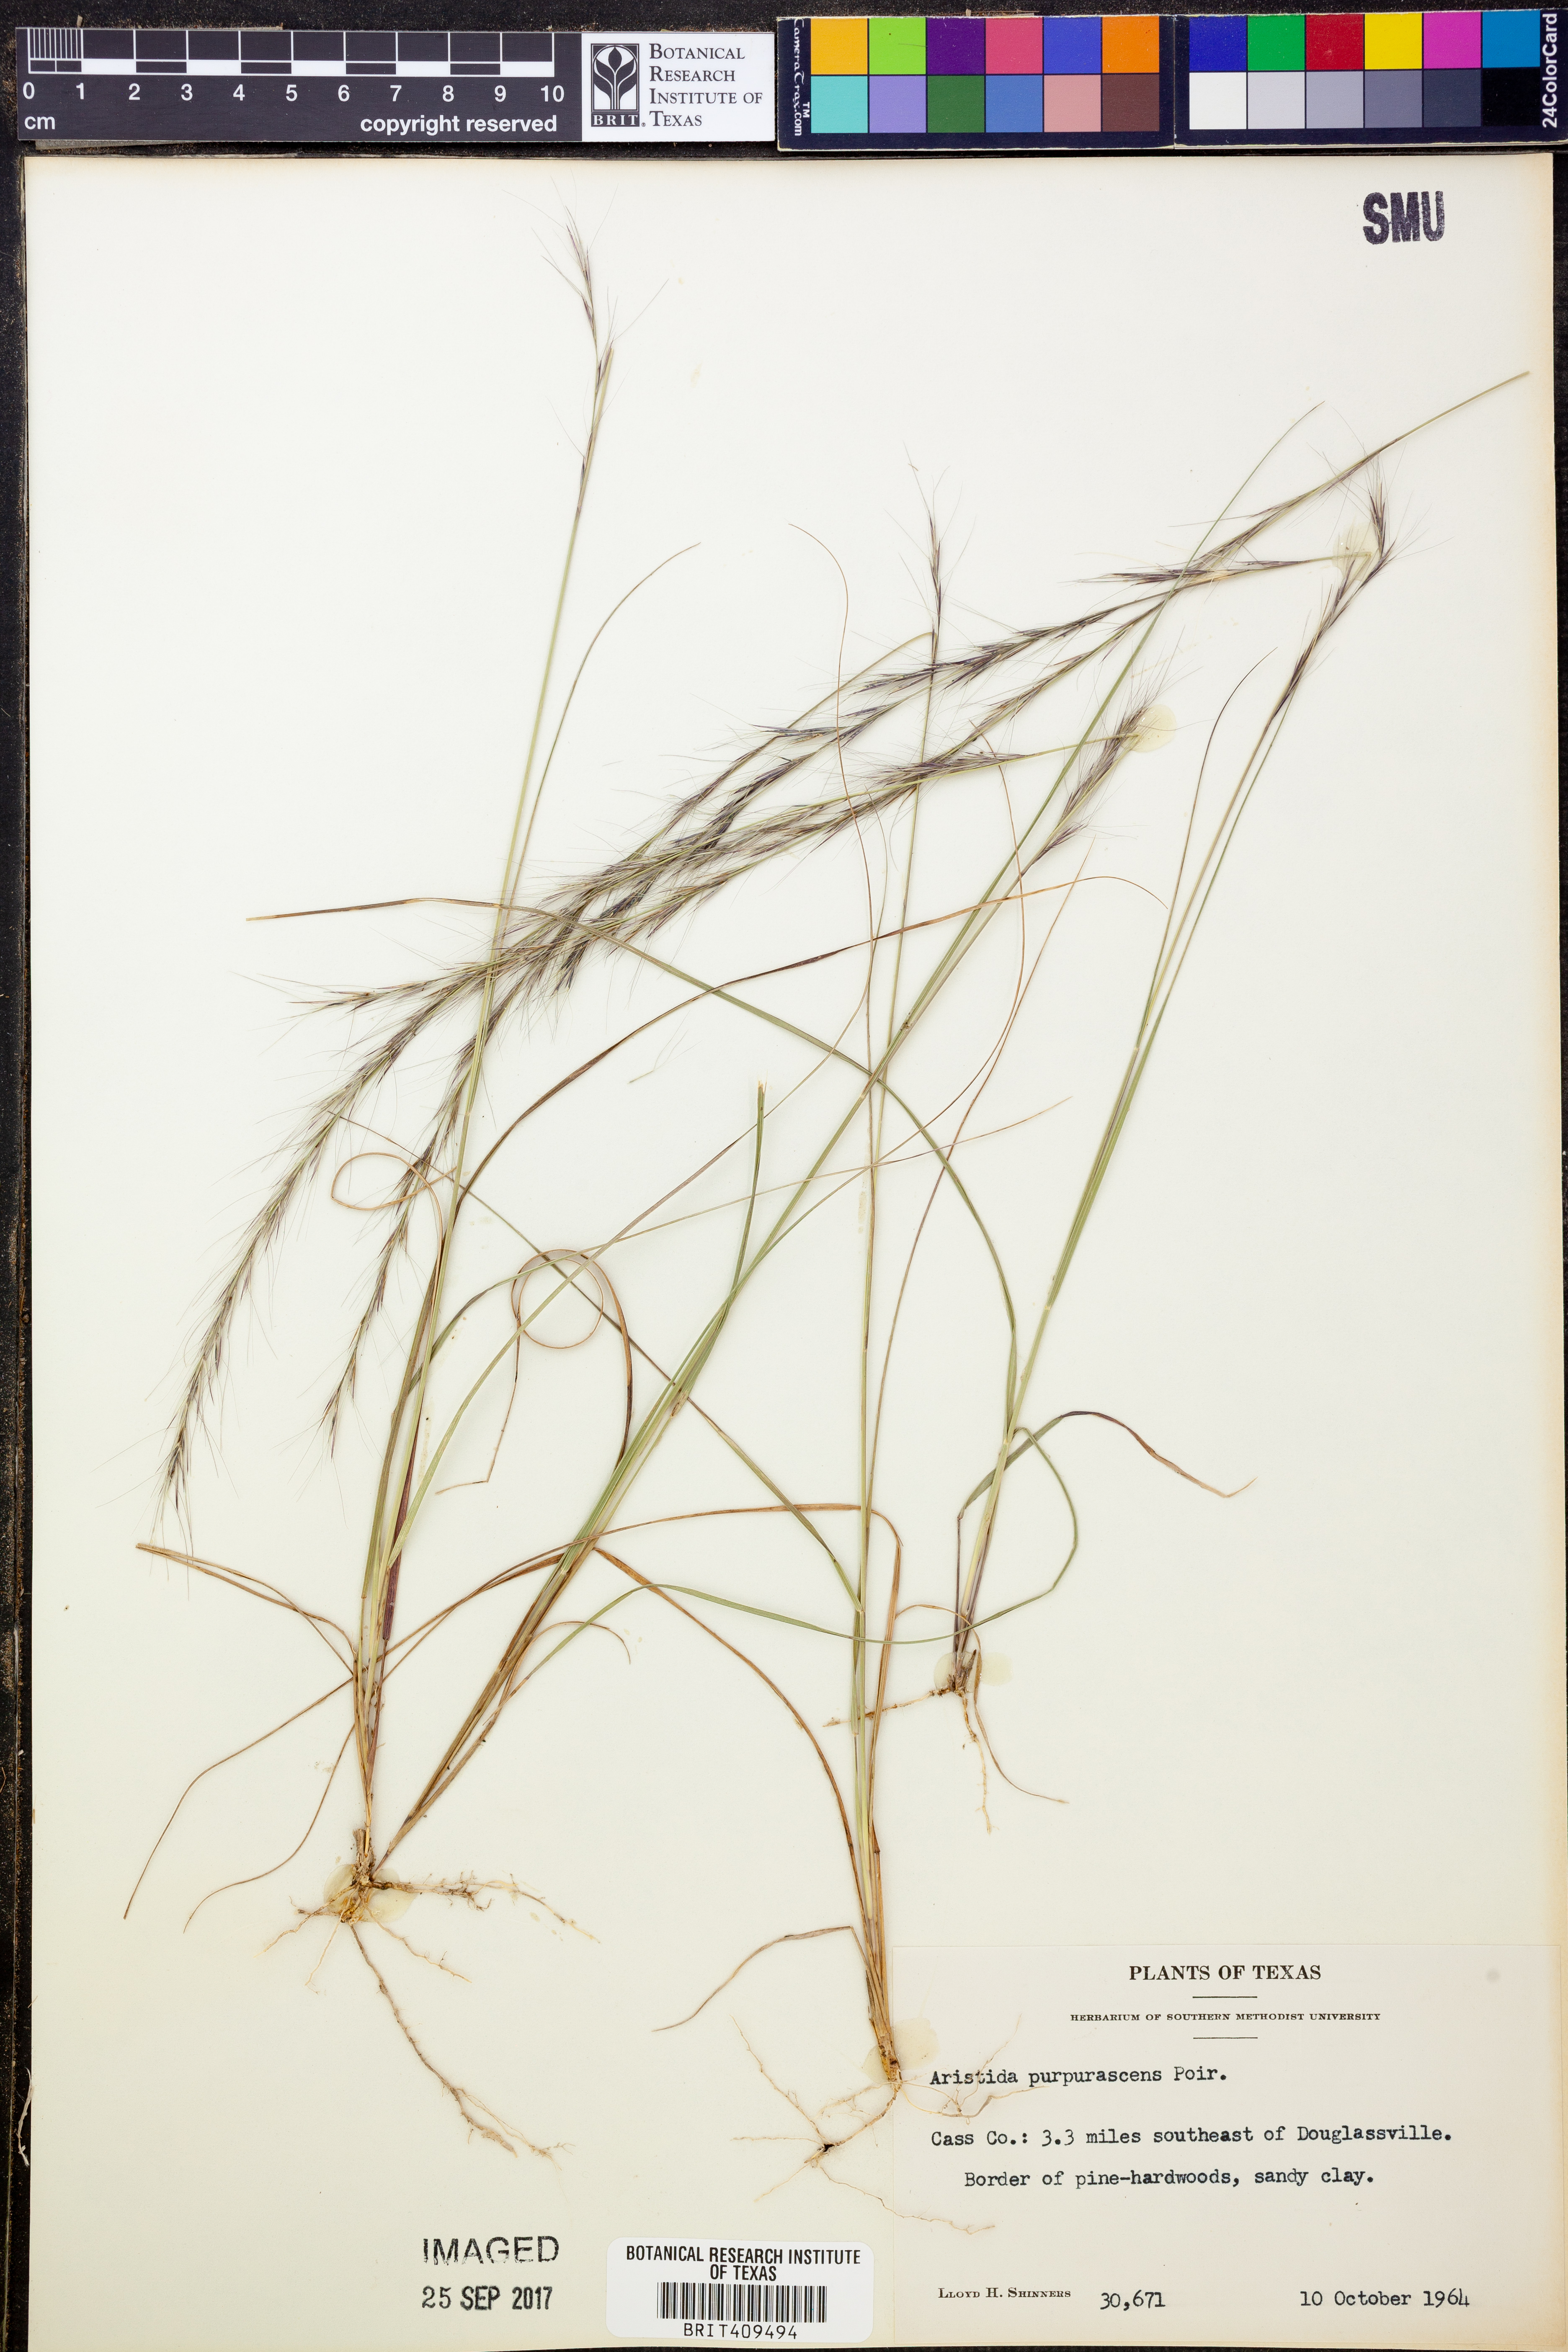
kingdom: Plantae
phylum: Tracheophyta
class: Liliopsida
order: Poales
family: Poaceae
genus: Aristida
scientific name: Aristida purpurascens
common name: Arrow-feather
